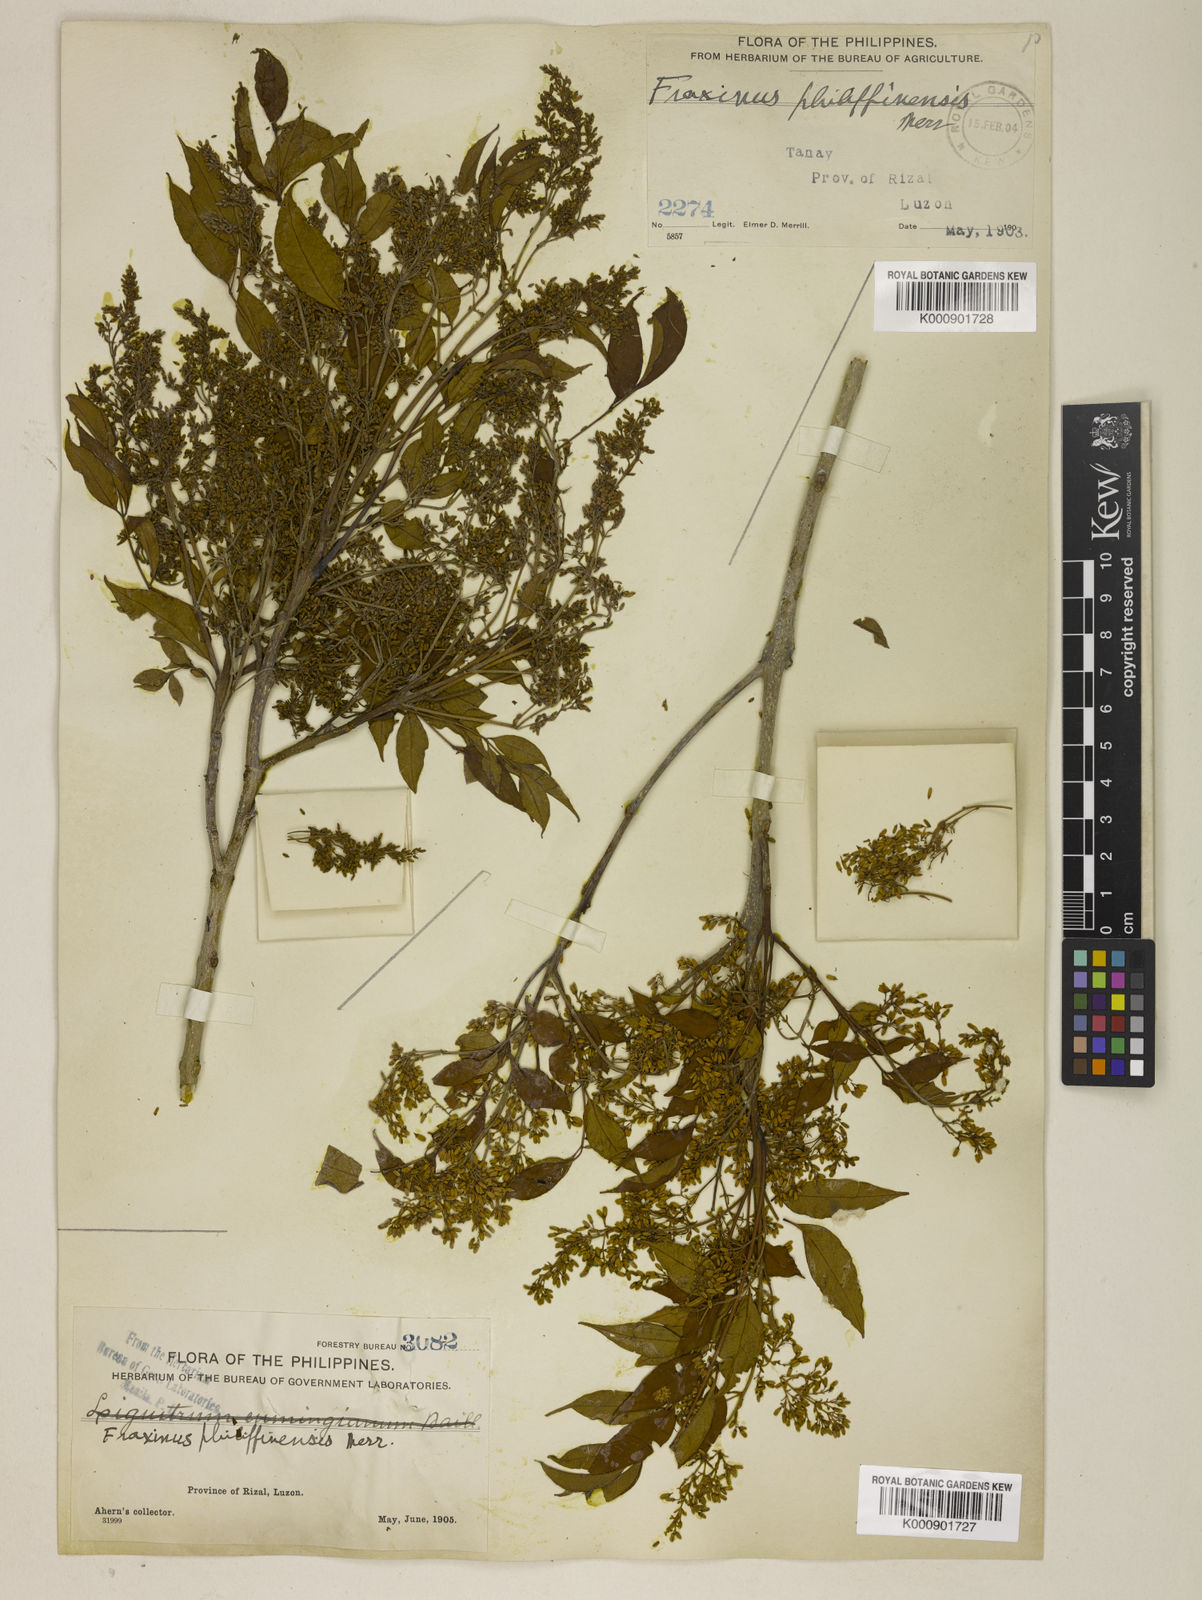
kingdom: Plantae
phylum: Tracheophyta
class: Magnoliopsida
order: Lamiales
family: Oleaceae
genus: Fraxinus
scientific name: Fraxinus griffithii
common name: Himalayan ash
